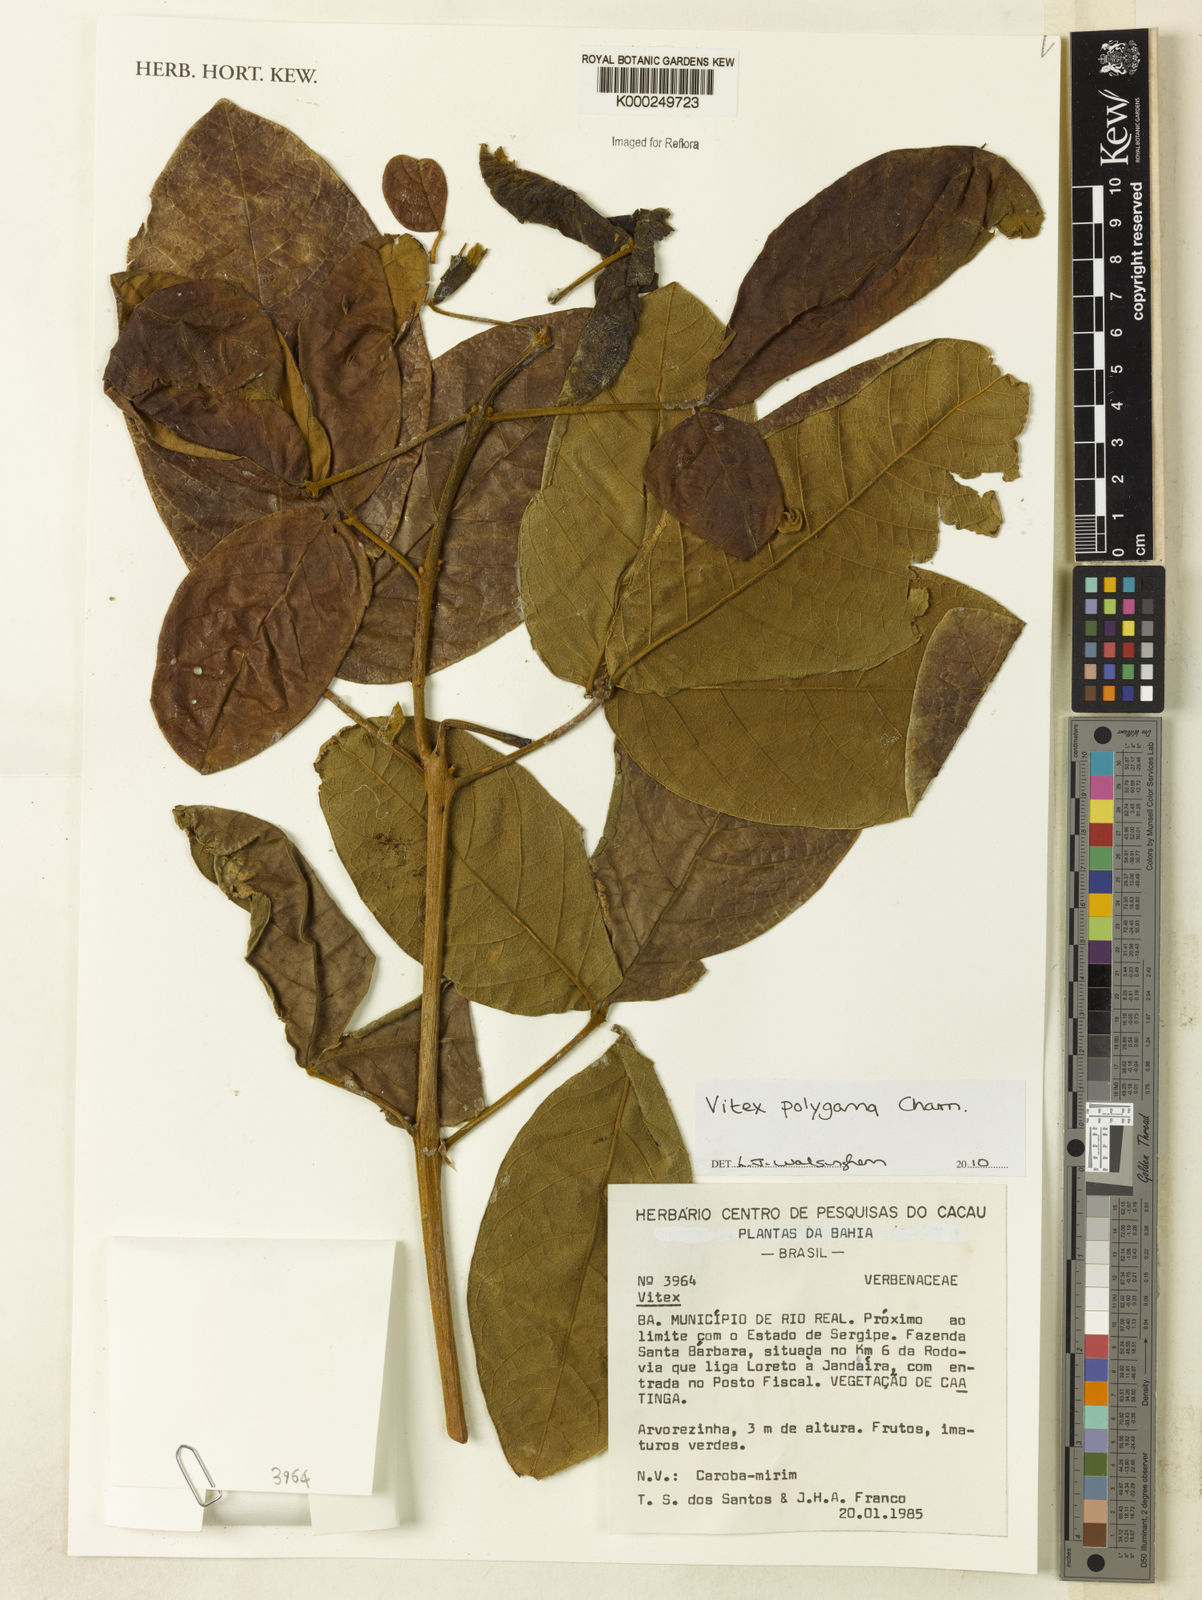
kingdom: Plantae
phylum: Tracheophyta
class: Magnoliopsida
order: Lamiales
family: Lamiaceae
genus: Vitex
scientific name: Vitex polygama
